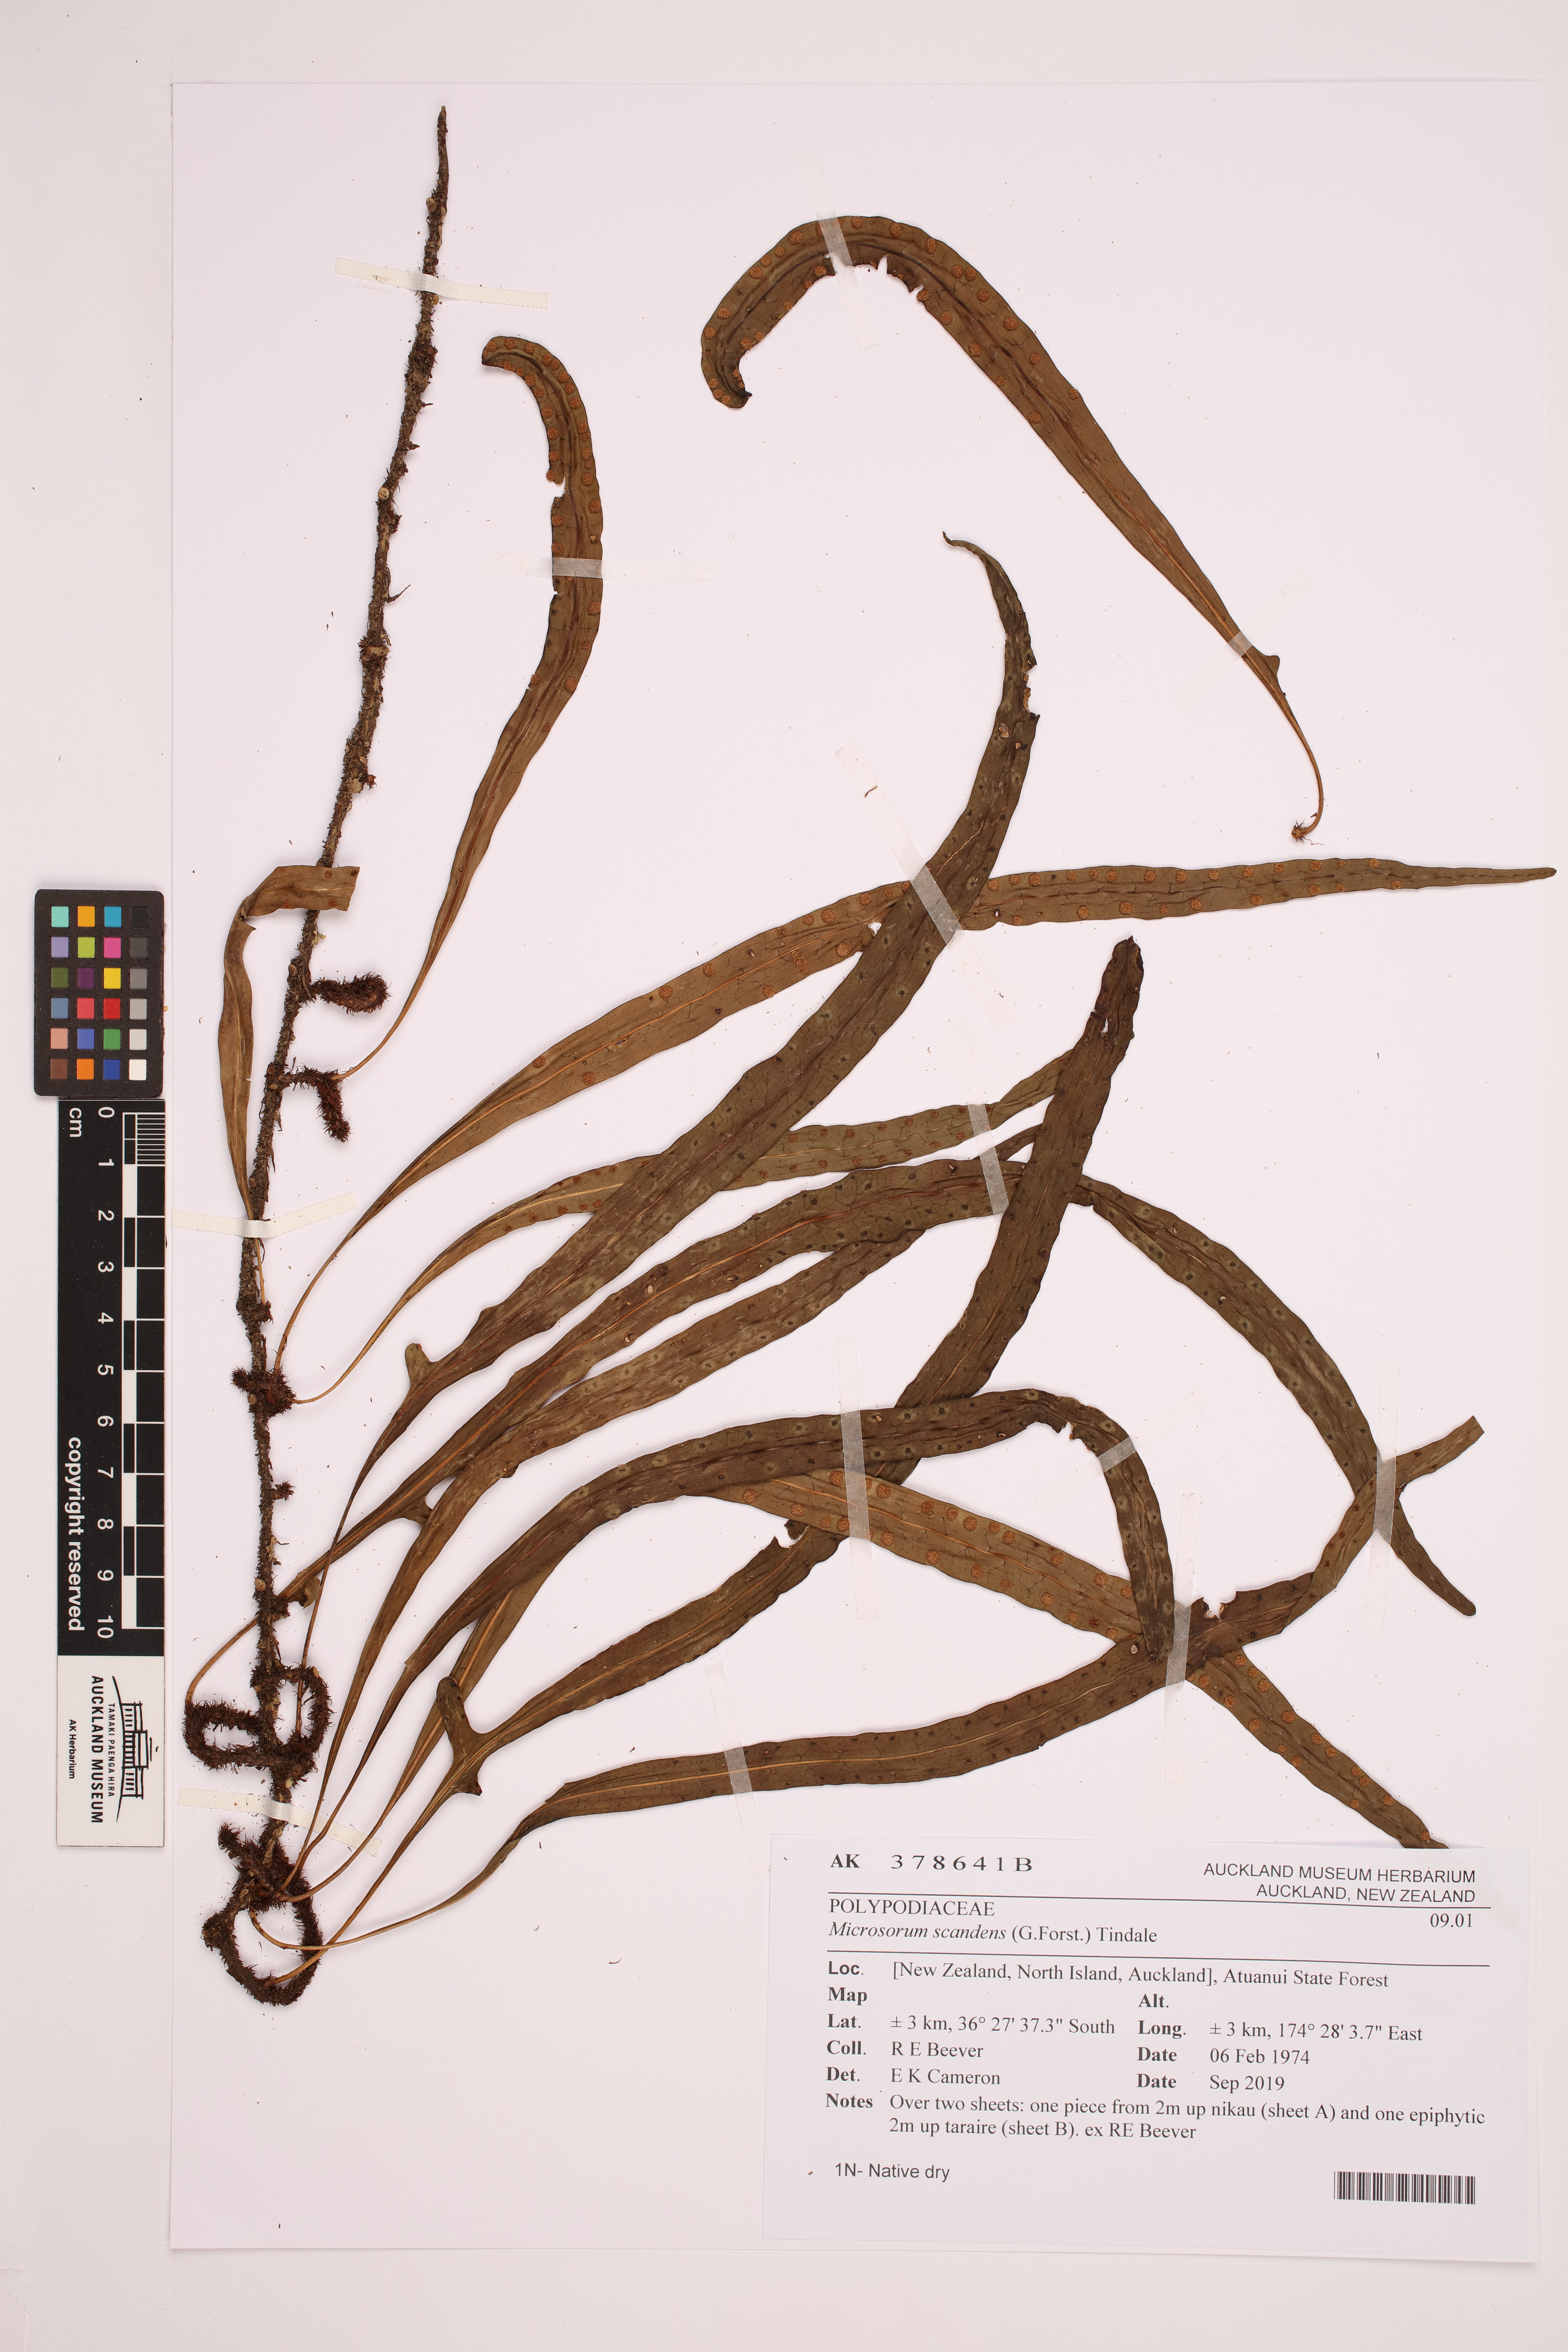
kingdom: Plantae
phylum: Tracheophyta
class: Polypodiopsida
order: Polypodiales
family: Polypodiaceae
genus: Lecanopteris
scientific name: Lecanopteris scandens
